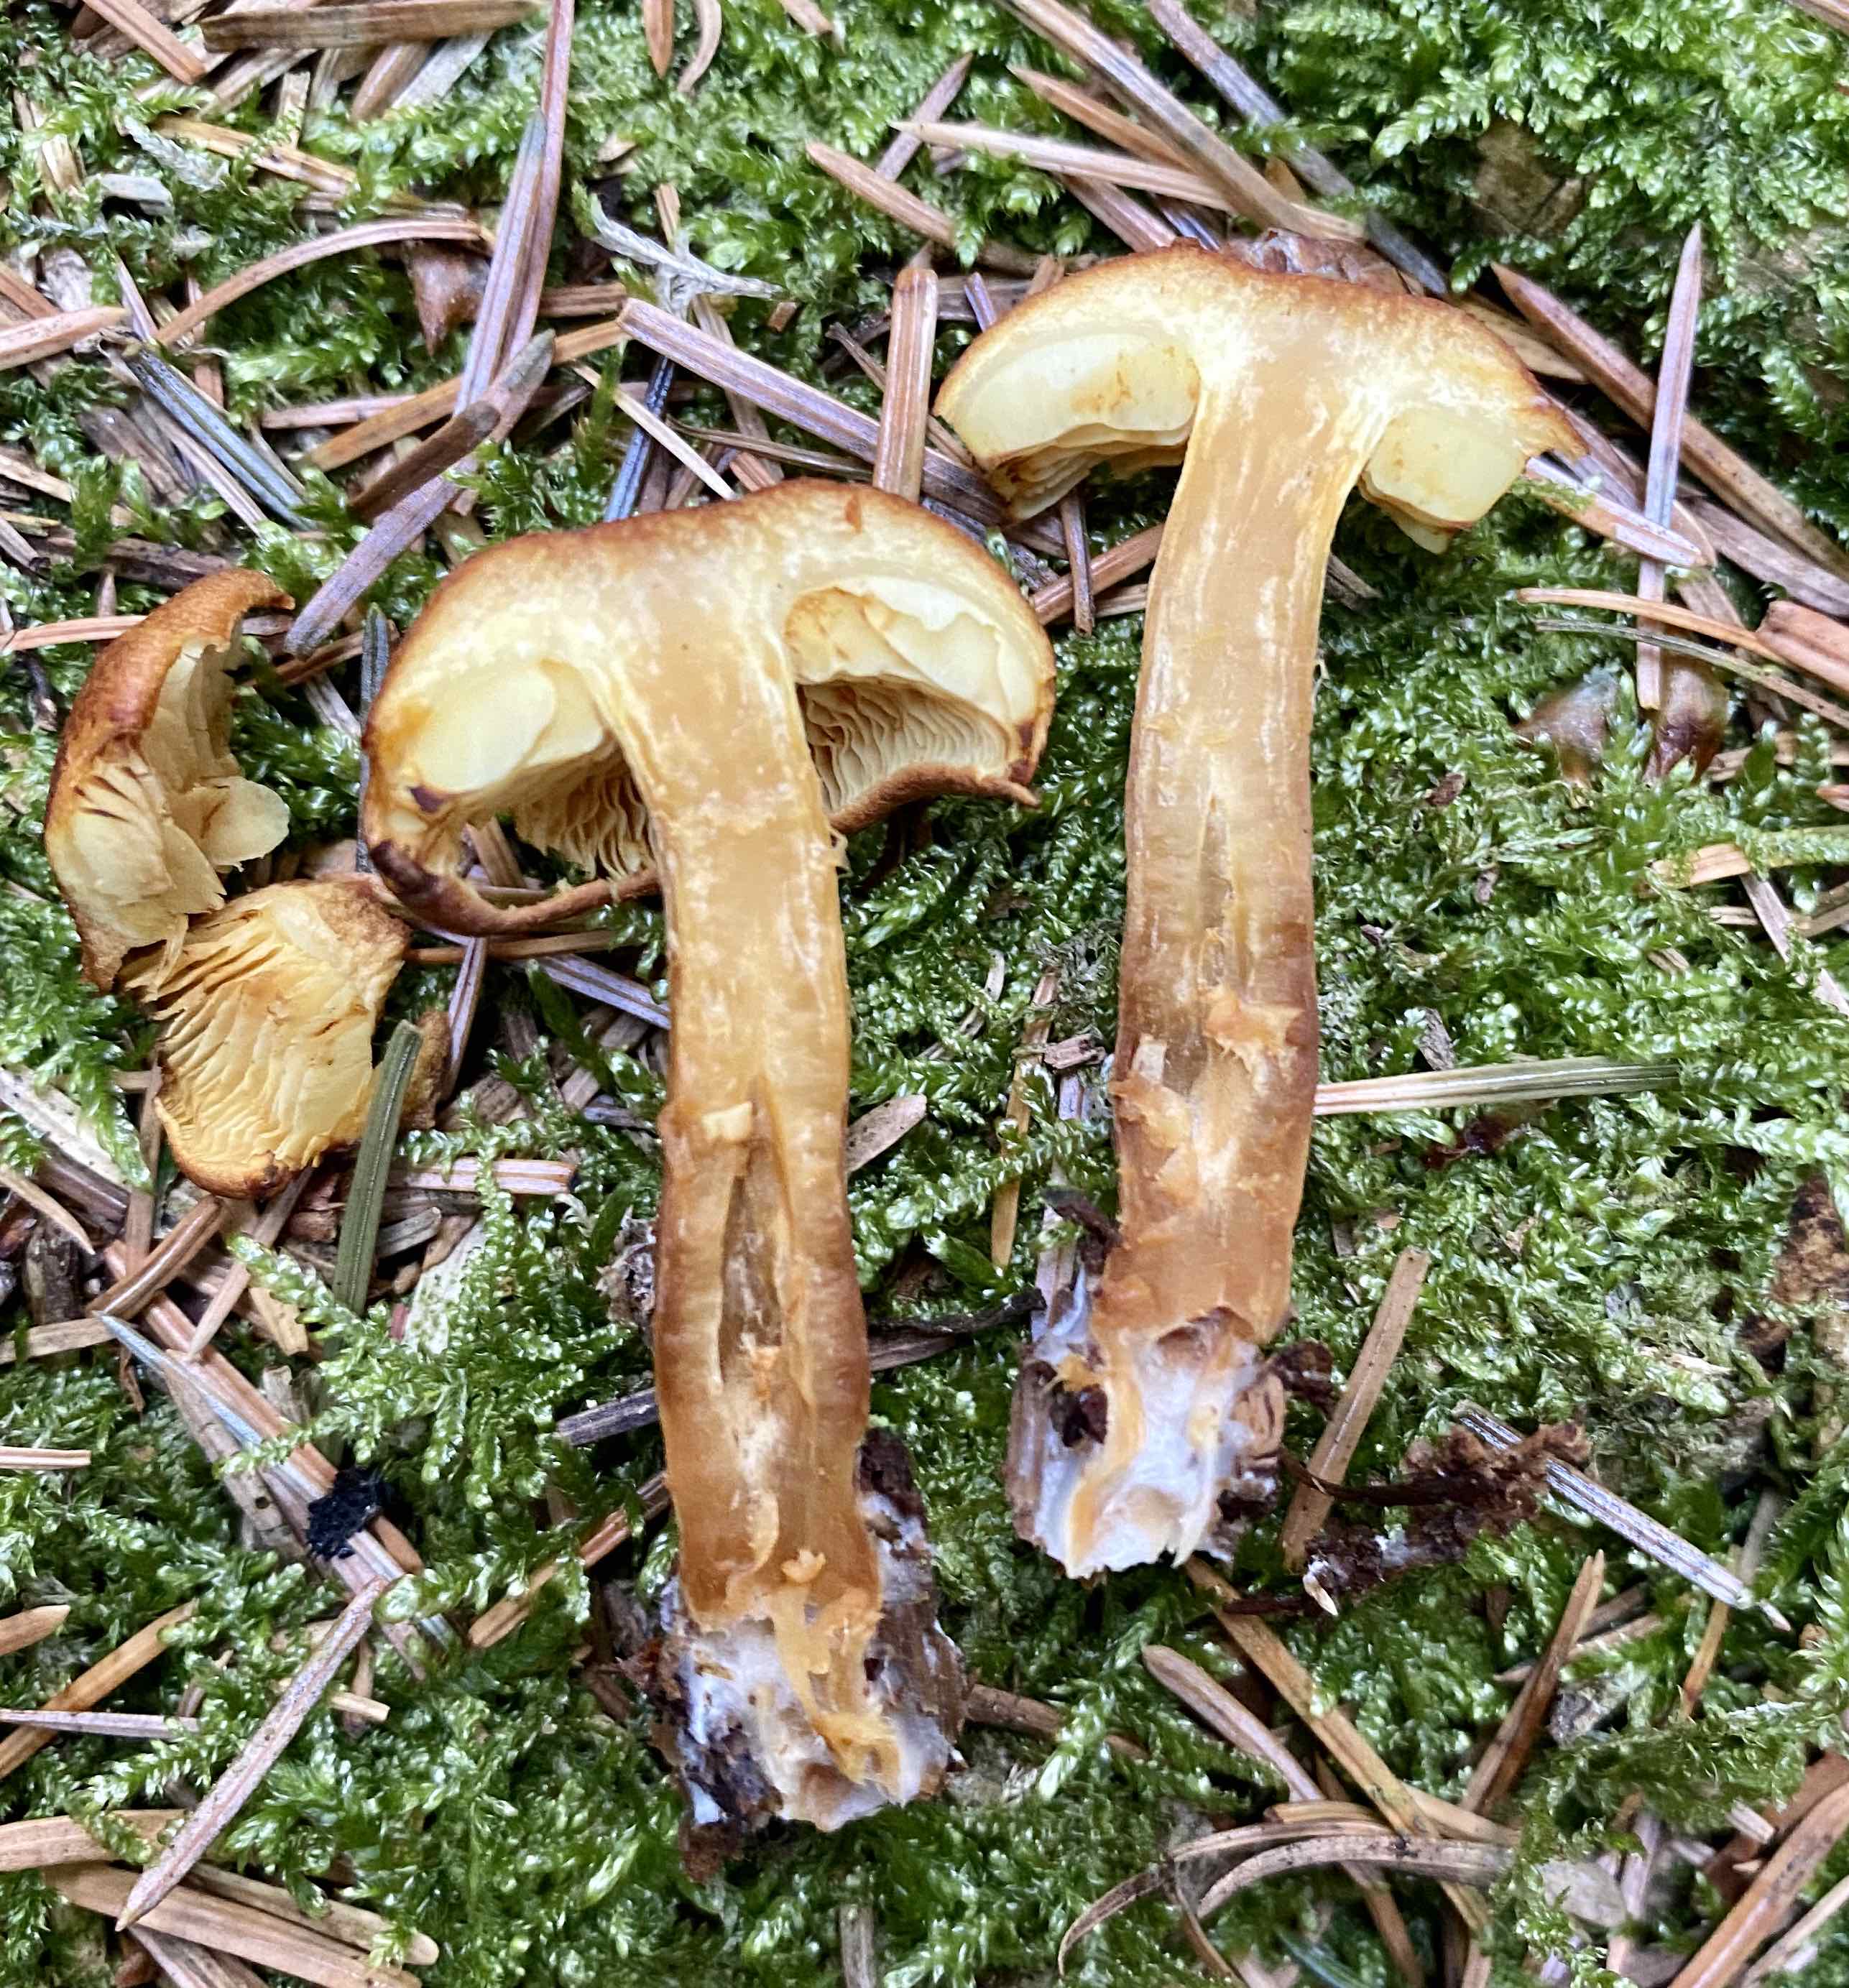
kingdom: Fungi
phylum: Basidiomycota
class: Agaricomycetes
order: Agaricales
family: Cortinariaceae
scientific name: Cortinariaceae
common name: slørhatfamilien
